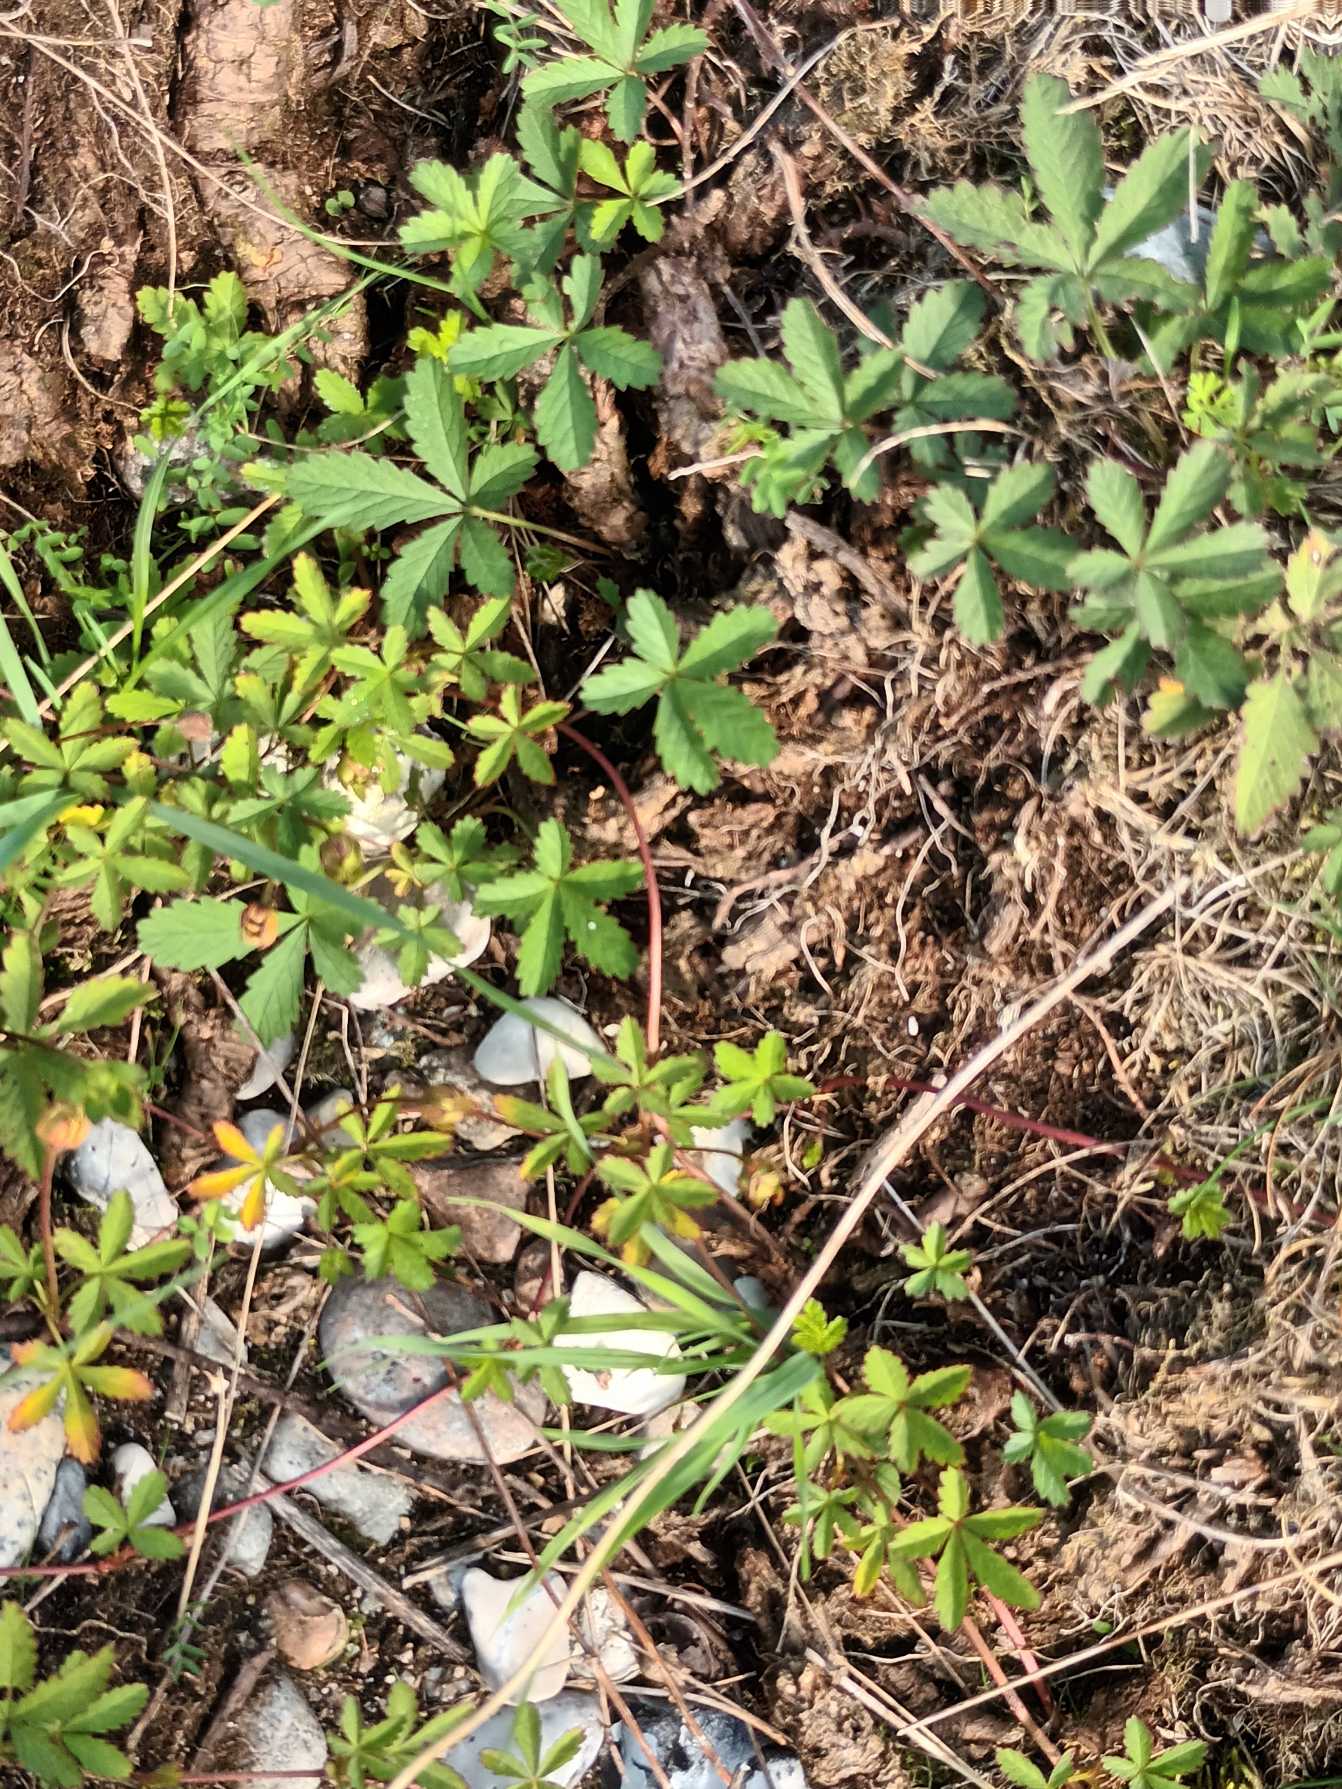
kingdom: Plantae
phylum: Tracheophyta
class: Magnoliopsida
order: Rosales
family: Rosaceae
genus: Potentilla
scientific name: Potentilla reptans
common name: Krybende potentil
